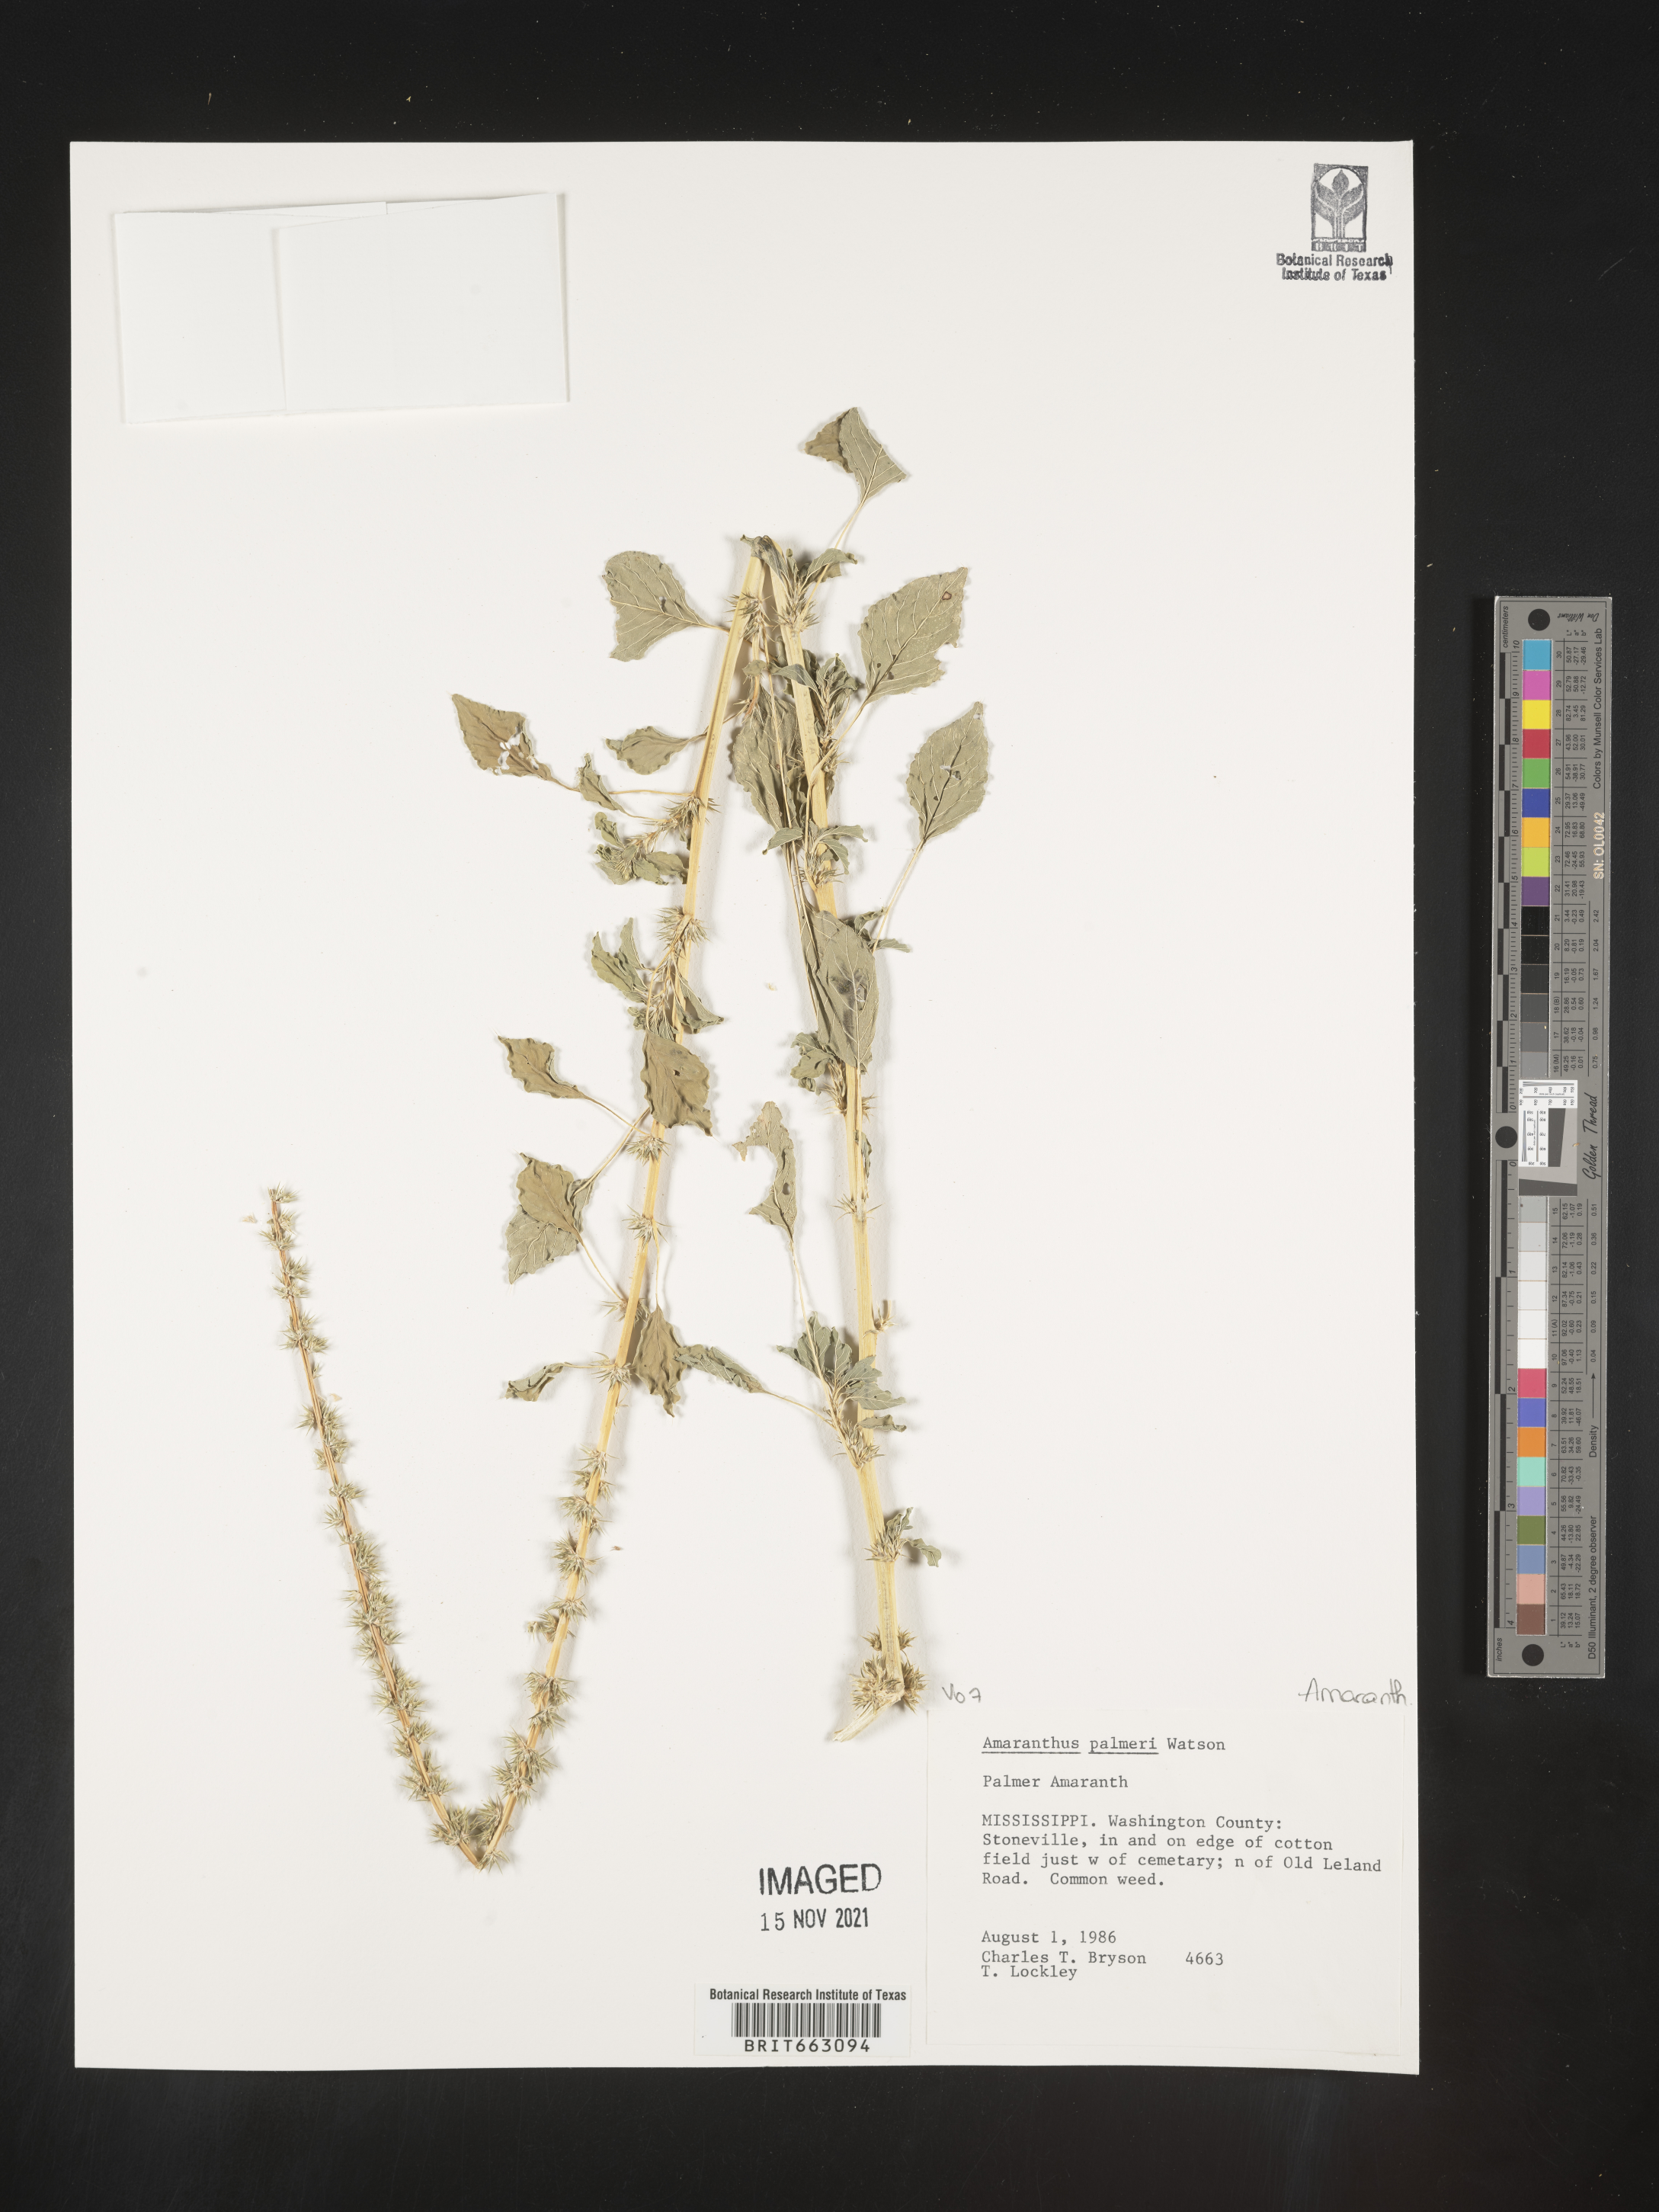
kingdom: Plantae
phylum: Tracheophyta
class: Magnoliopsida
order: Caryophyllales
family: Amaranthaceae
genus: Amaranthus
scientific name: Amaranthus palmeri
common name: Dioecious amaranth
